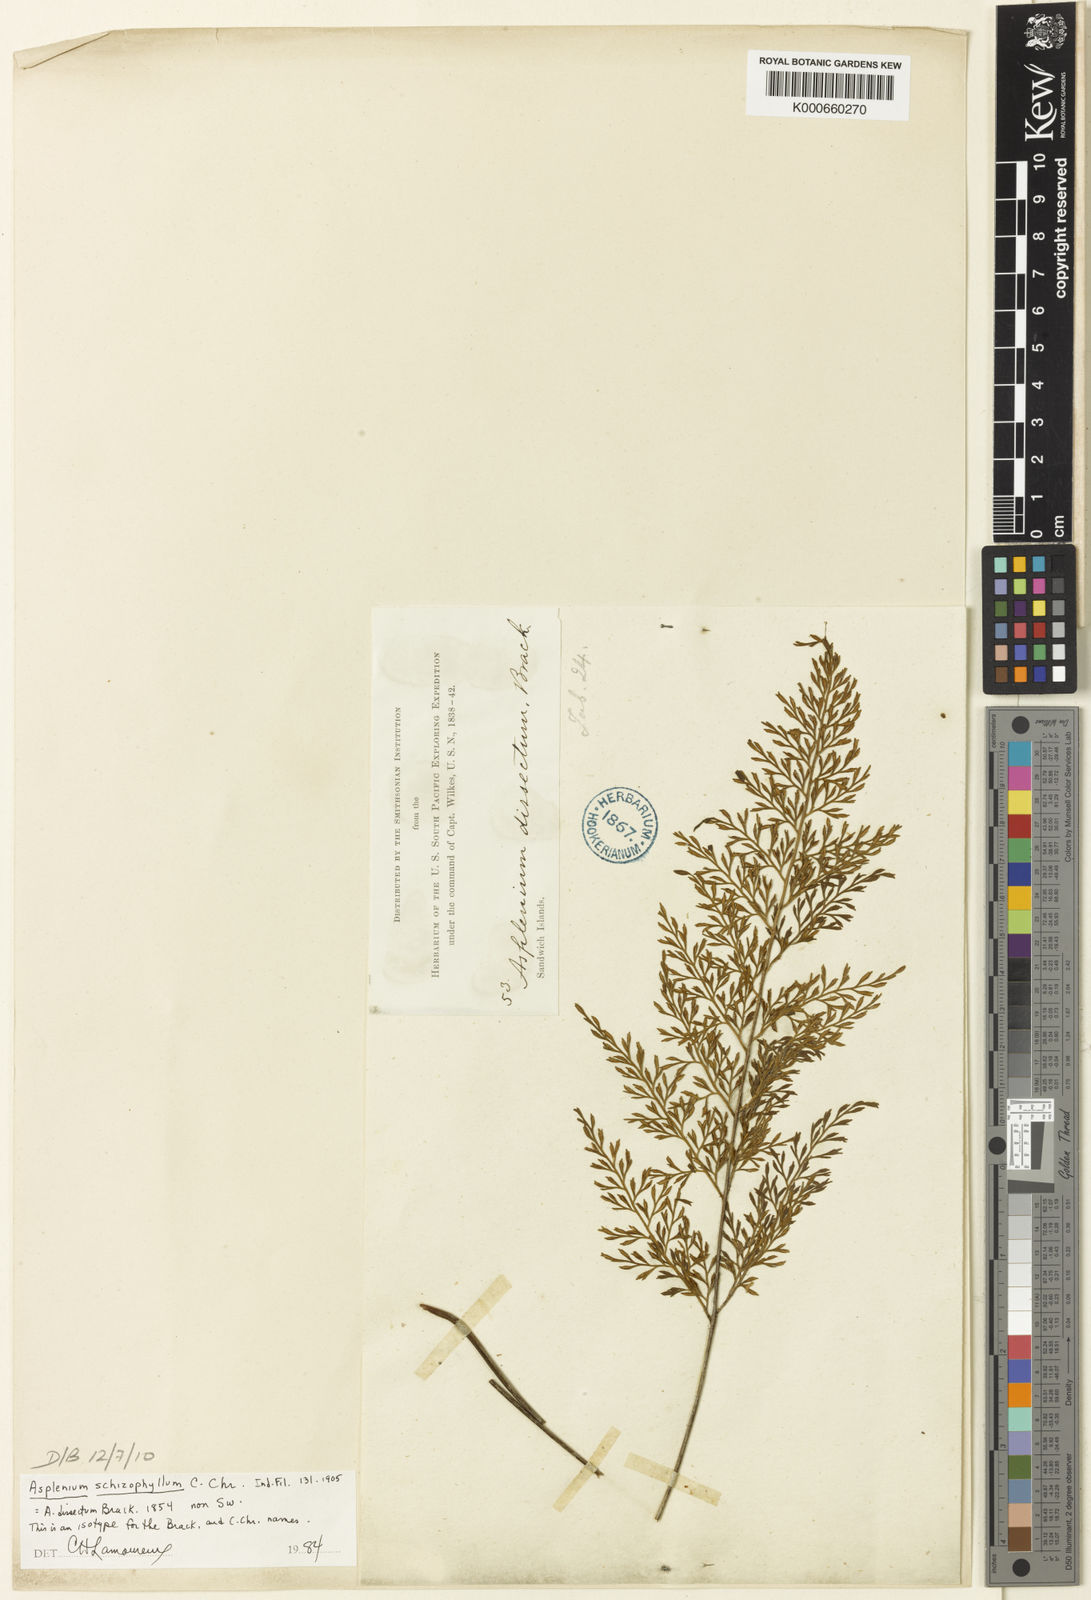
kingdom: Plantae
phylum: Tracheophyta
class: Polypodiopsida
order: Polypodiales
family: Aspleniaceae
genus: Asplenium
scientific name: Asplenium schizophyllum
